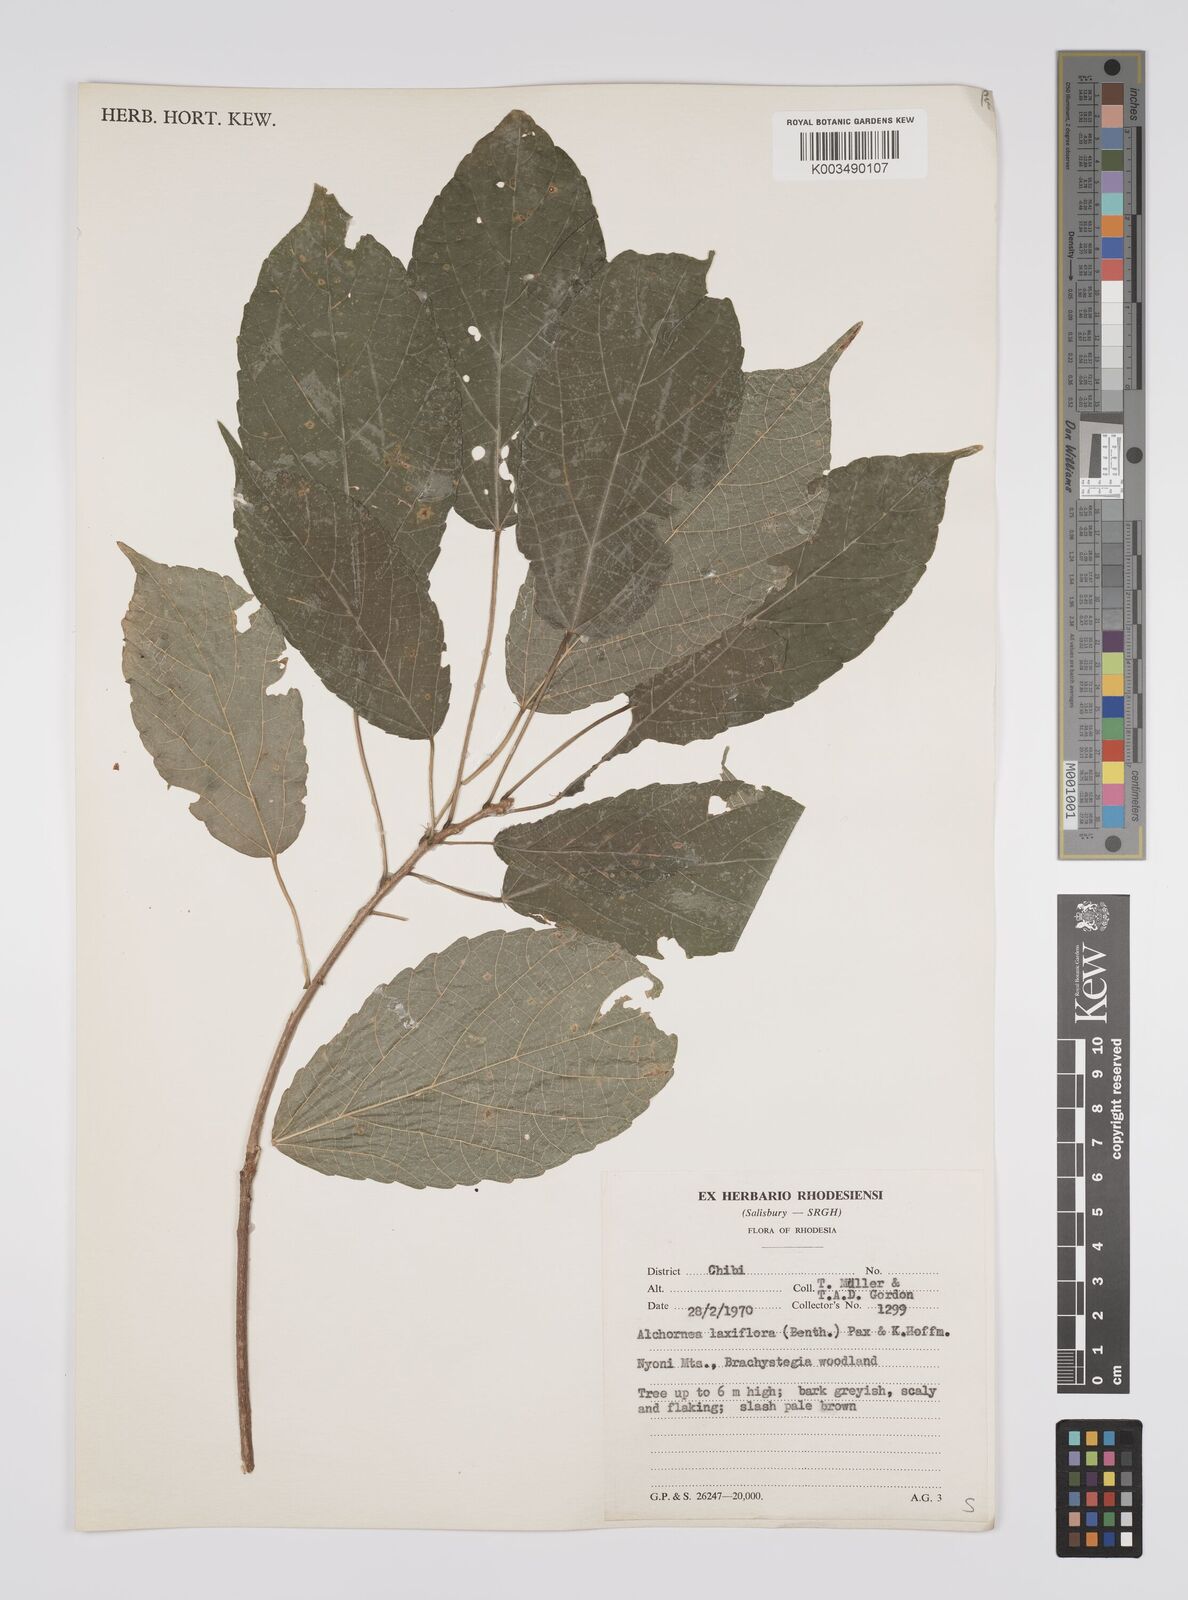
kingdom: Plantae
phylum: Tracheophyta
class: Magnoliopsida
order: Malpighiales
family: Euphorbiaceae
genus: Alchornea
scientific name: Alchornea laxiflora
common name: Lowveld bead-string
